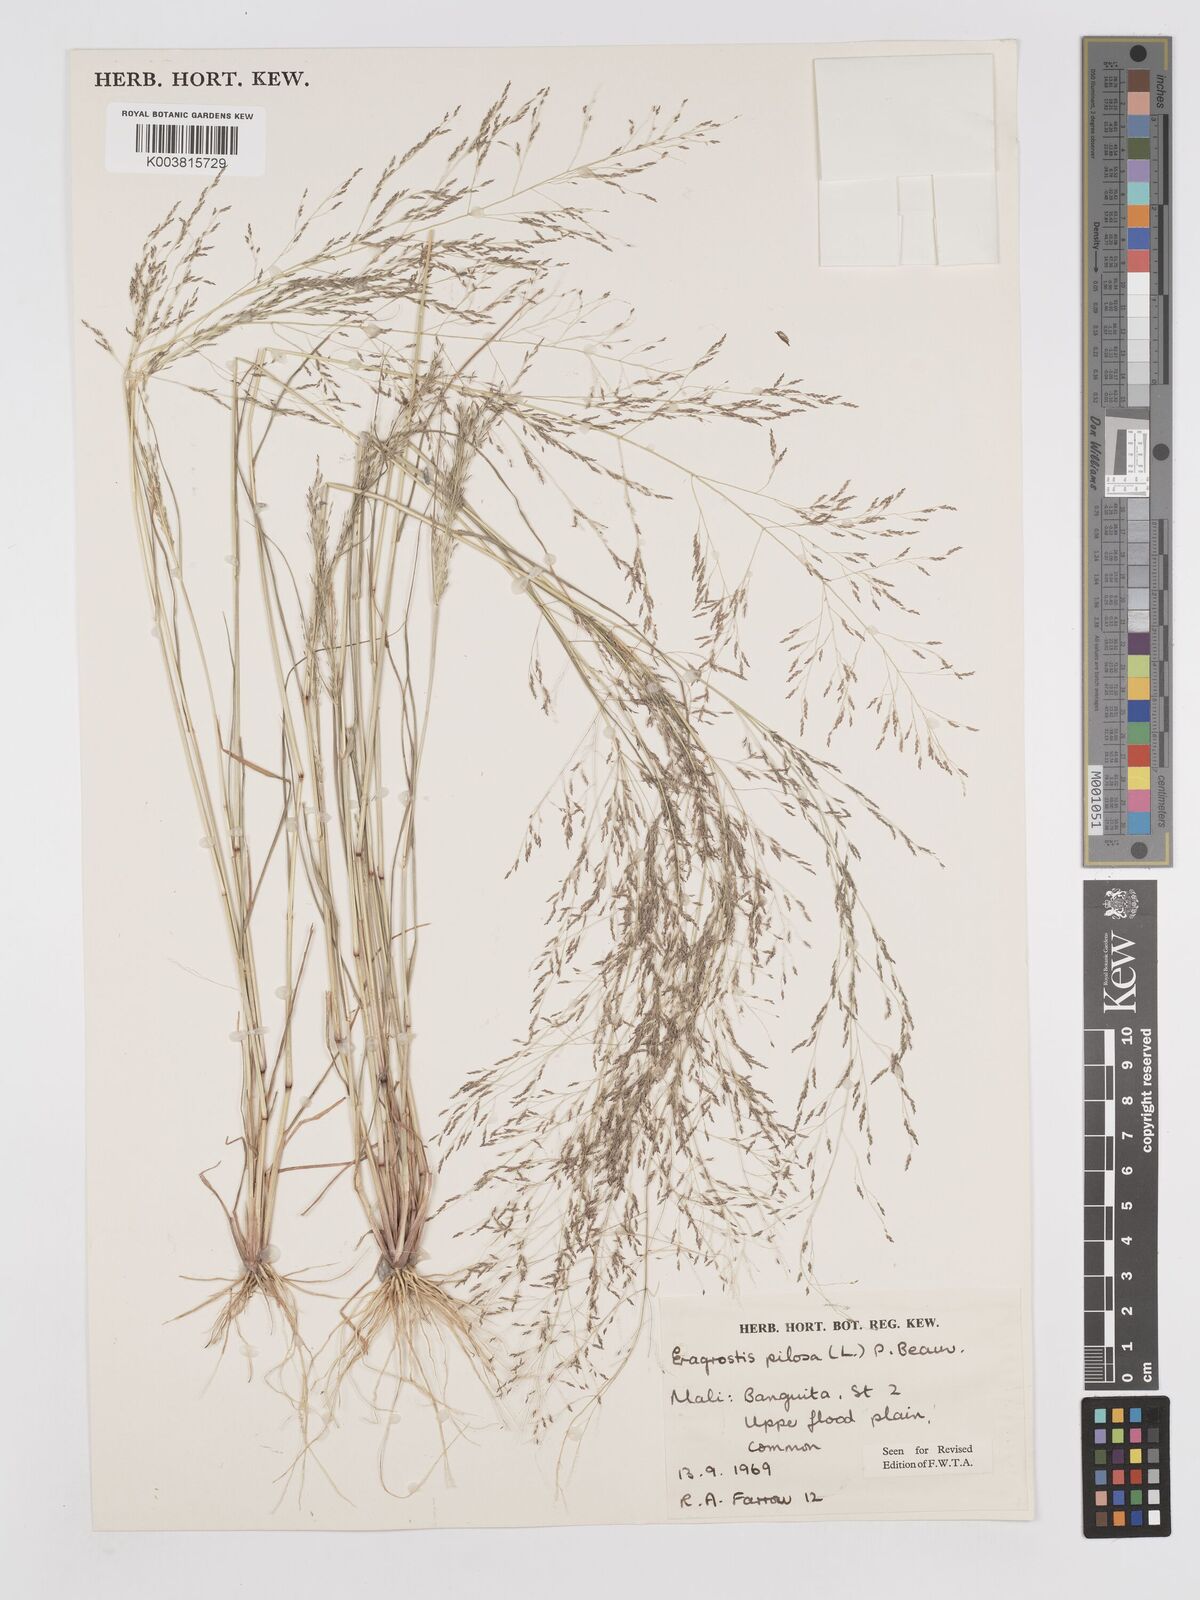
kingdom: Plantae
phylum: Tracheophyta
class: Liliopsida
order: Poales
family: Poaceae
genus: Eragrostis
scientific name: Eragrostis pilosa
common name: Indian lovegrass
